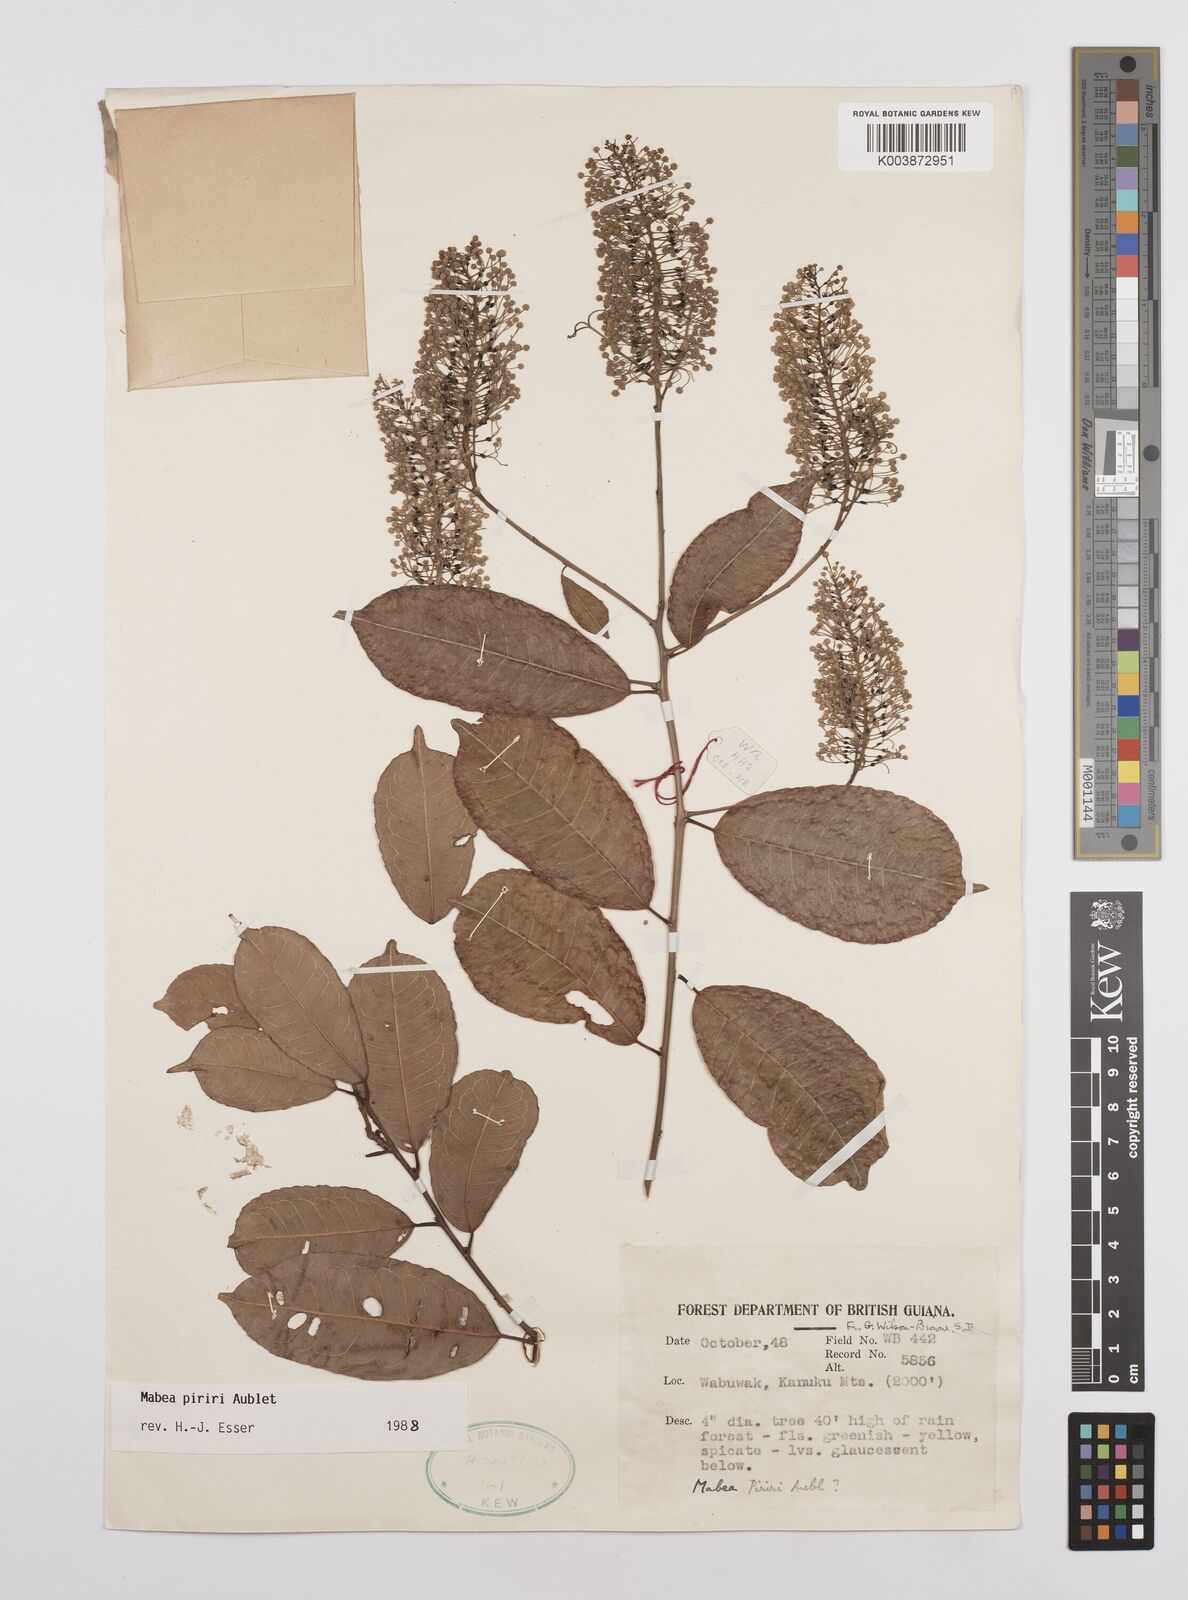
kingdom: Plantae
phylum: Tracheophyta
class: Magnoliopsida
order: Malpighiales
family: Euphorbiaceae
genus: Mabea
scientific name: Mabea piriri
